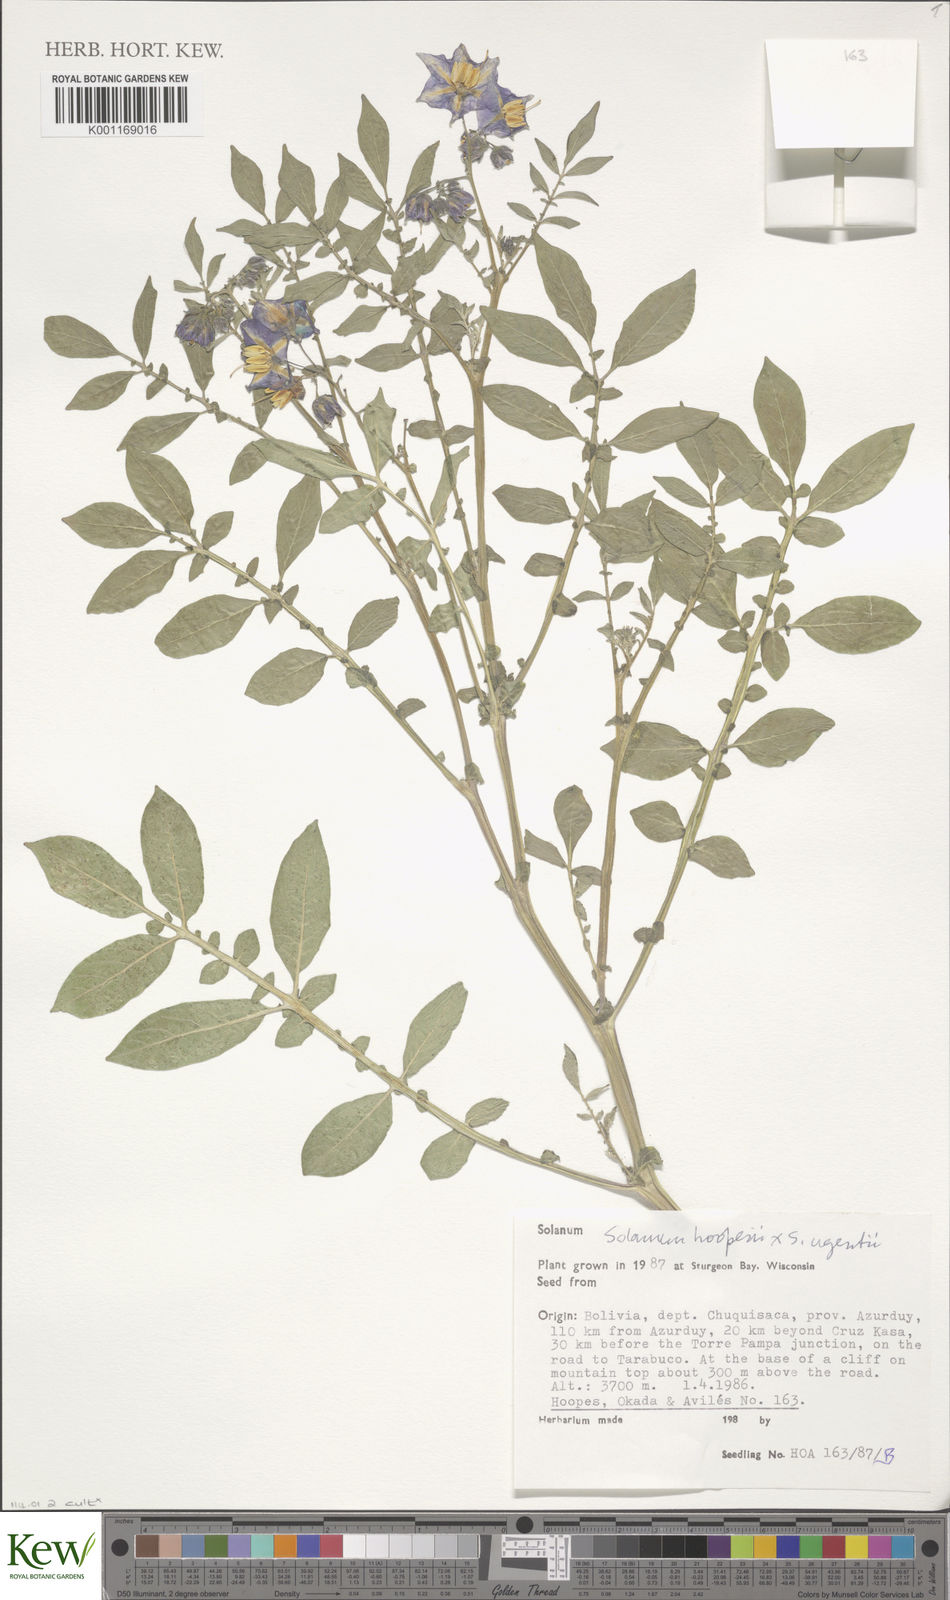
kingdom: Plantae
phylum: Tracheophyta
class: Magnoliopsida
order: Solanales
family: Solanaceae
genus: Solanum
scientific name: Solanum brevicaule
